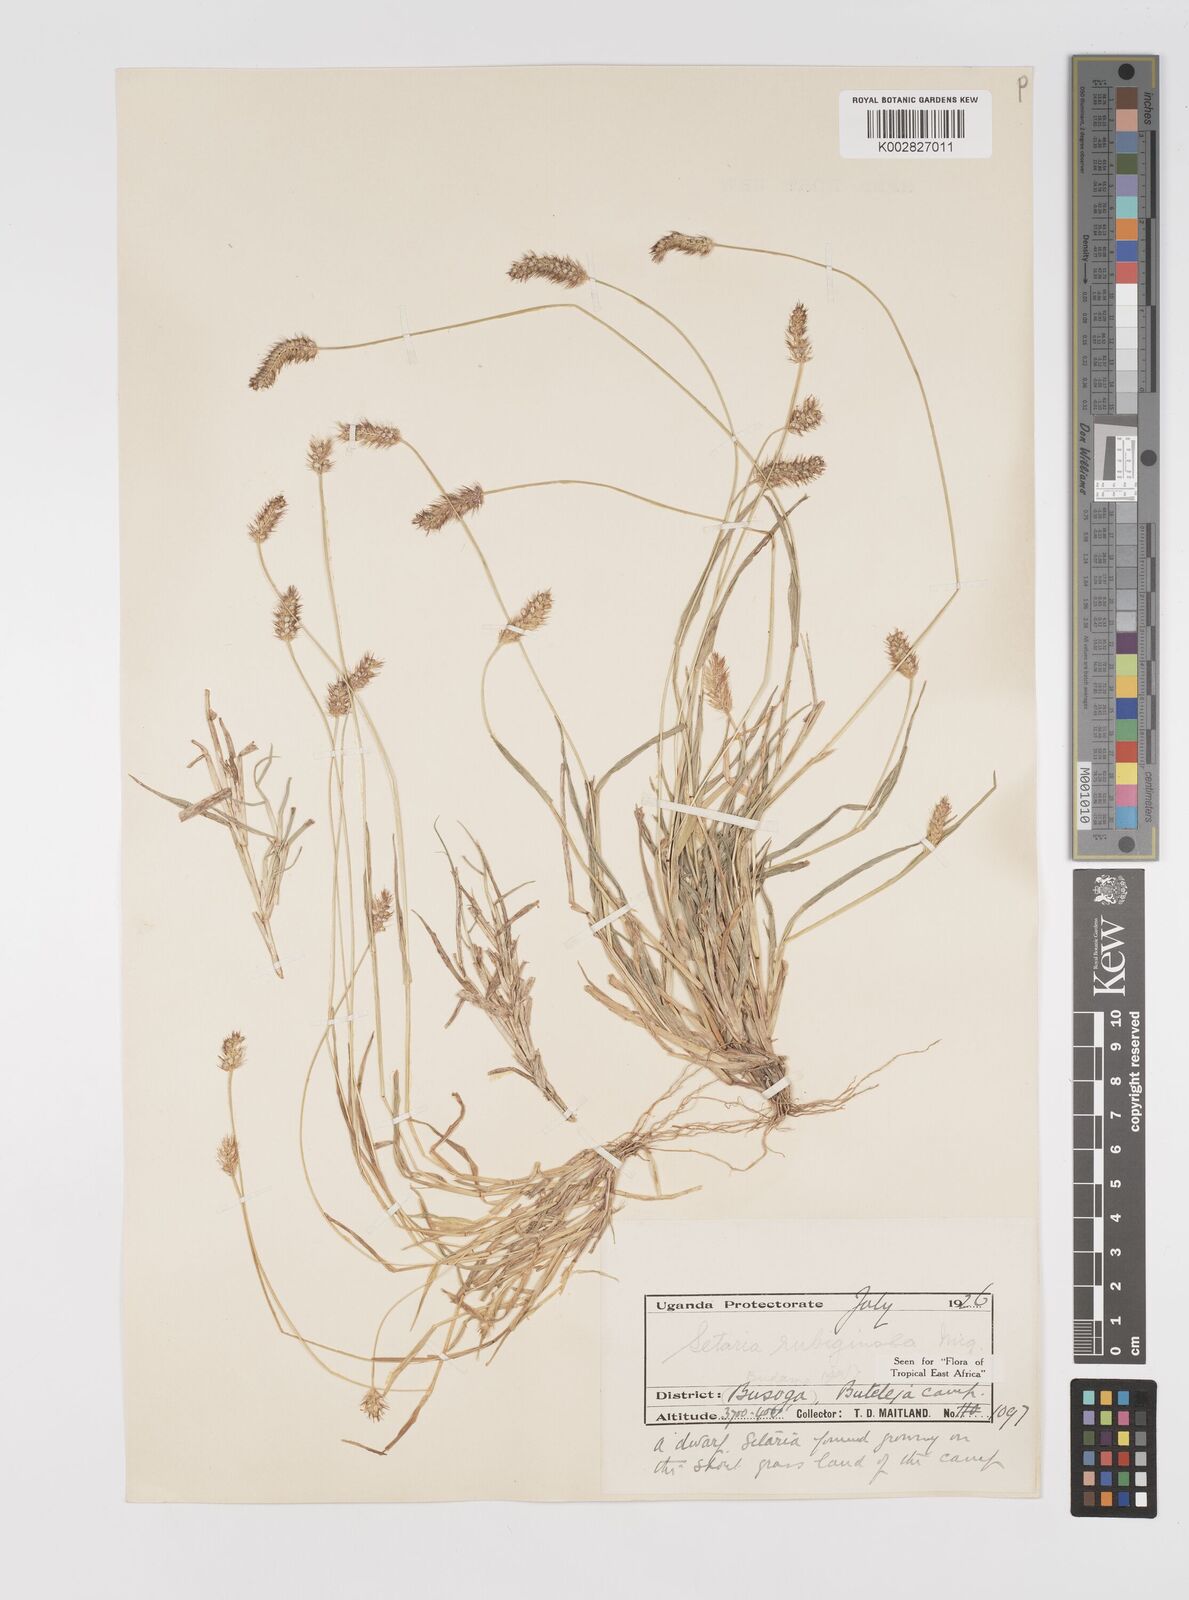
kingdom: Plantae
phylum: Tracheophyta
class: Liliopsida
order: Poales
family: Poaceae
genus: Setaria
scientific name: Setaria pumila
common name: Yellow bristle-grass
